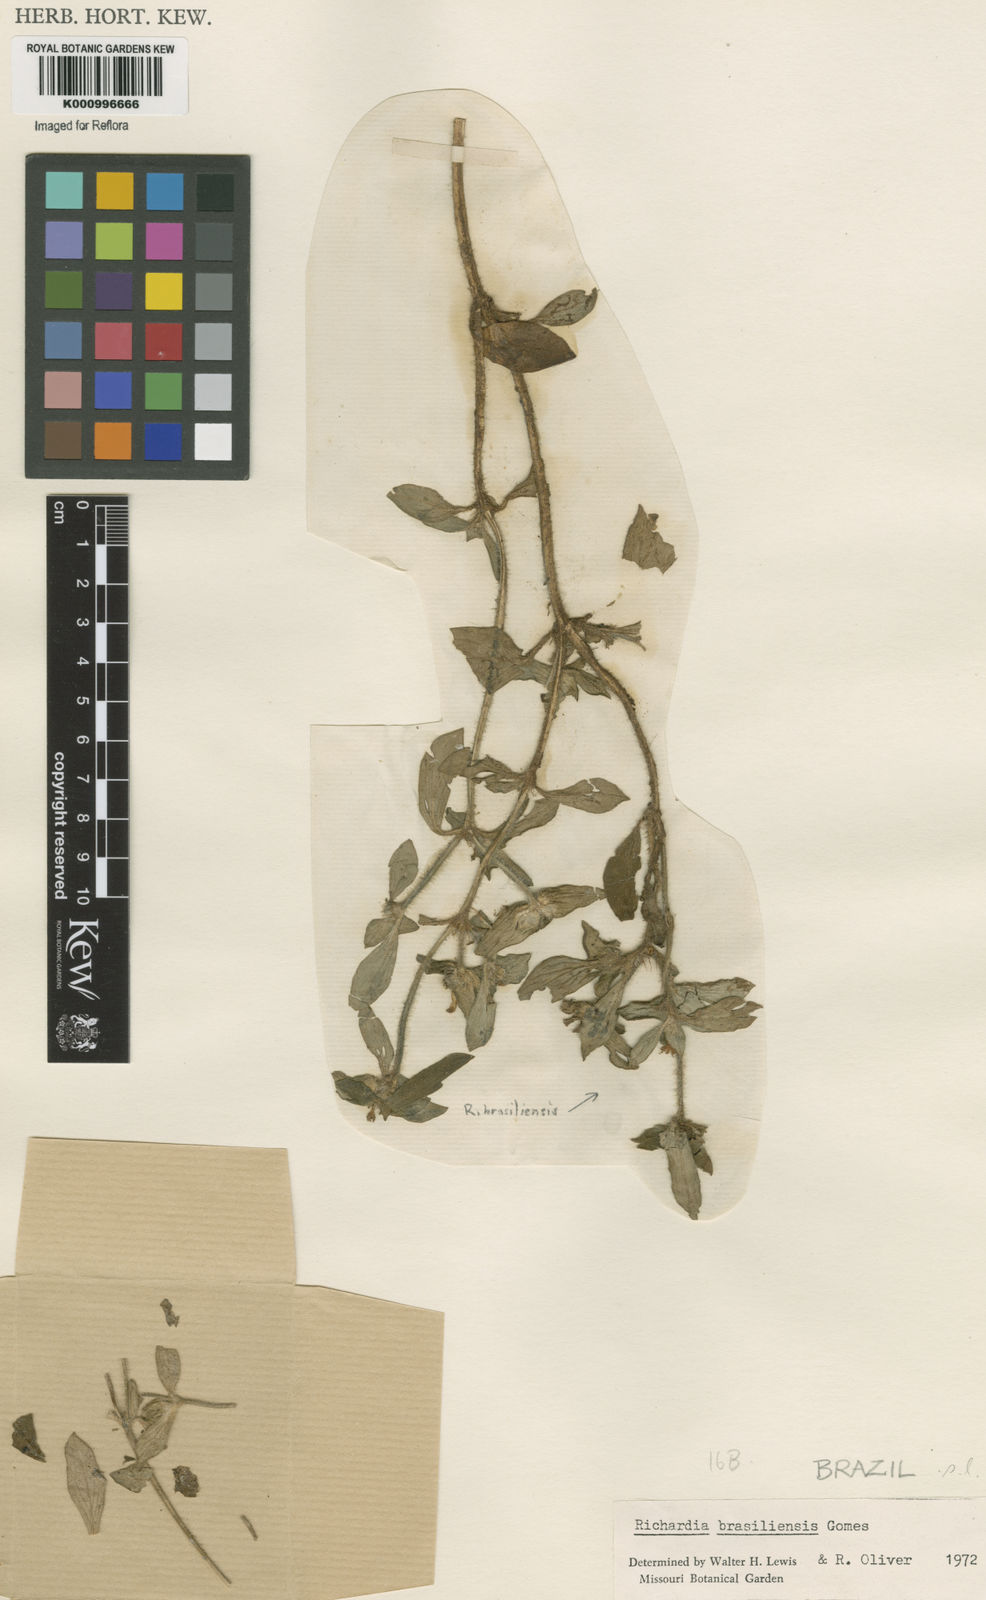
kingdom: Plantae
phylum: Tracheophyta
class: Magnoliopsida
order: Gentianales
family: Rubiaceae
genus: Richardia
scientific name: Richardia brasiliensis
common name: Tropical mexican clover
